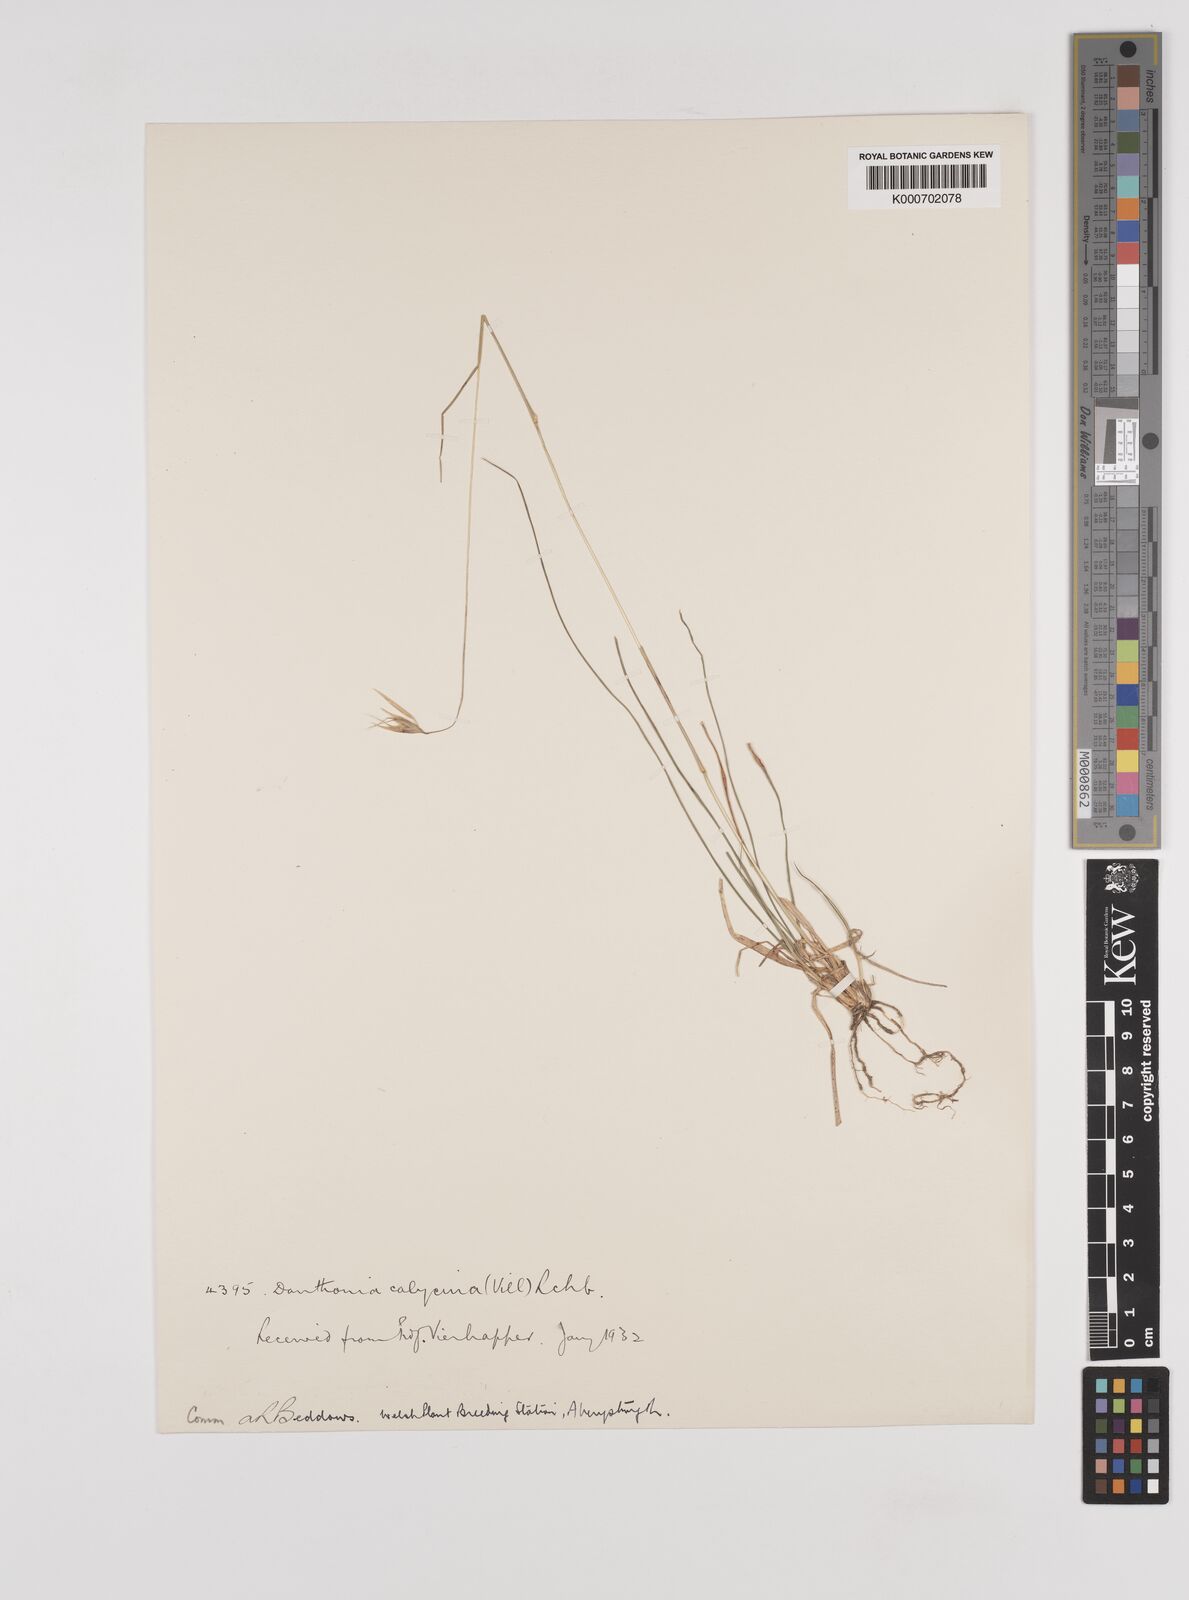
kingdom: Plantae
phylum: Tracheophyta
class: Liliopsida
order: Poales
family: Poaceae
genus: Rytidosperma
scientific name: Rytidosperma semiannulare
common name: Tasmanian wallaby grass
